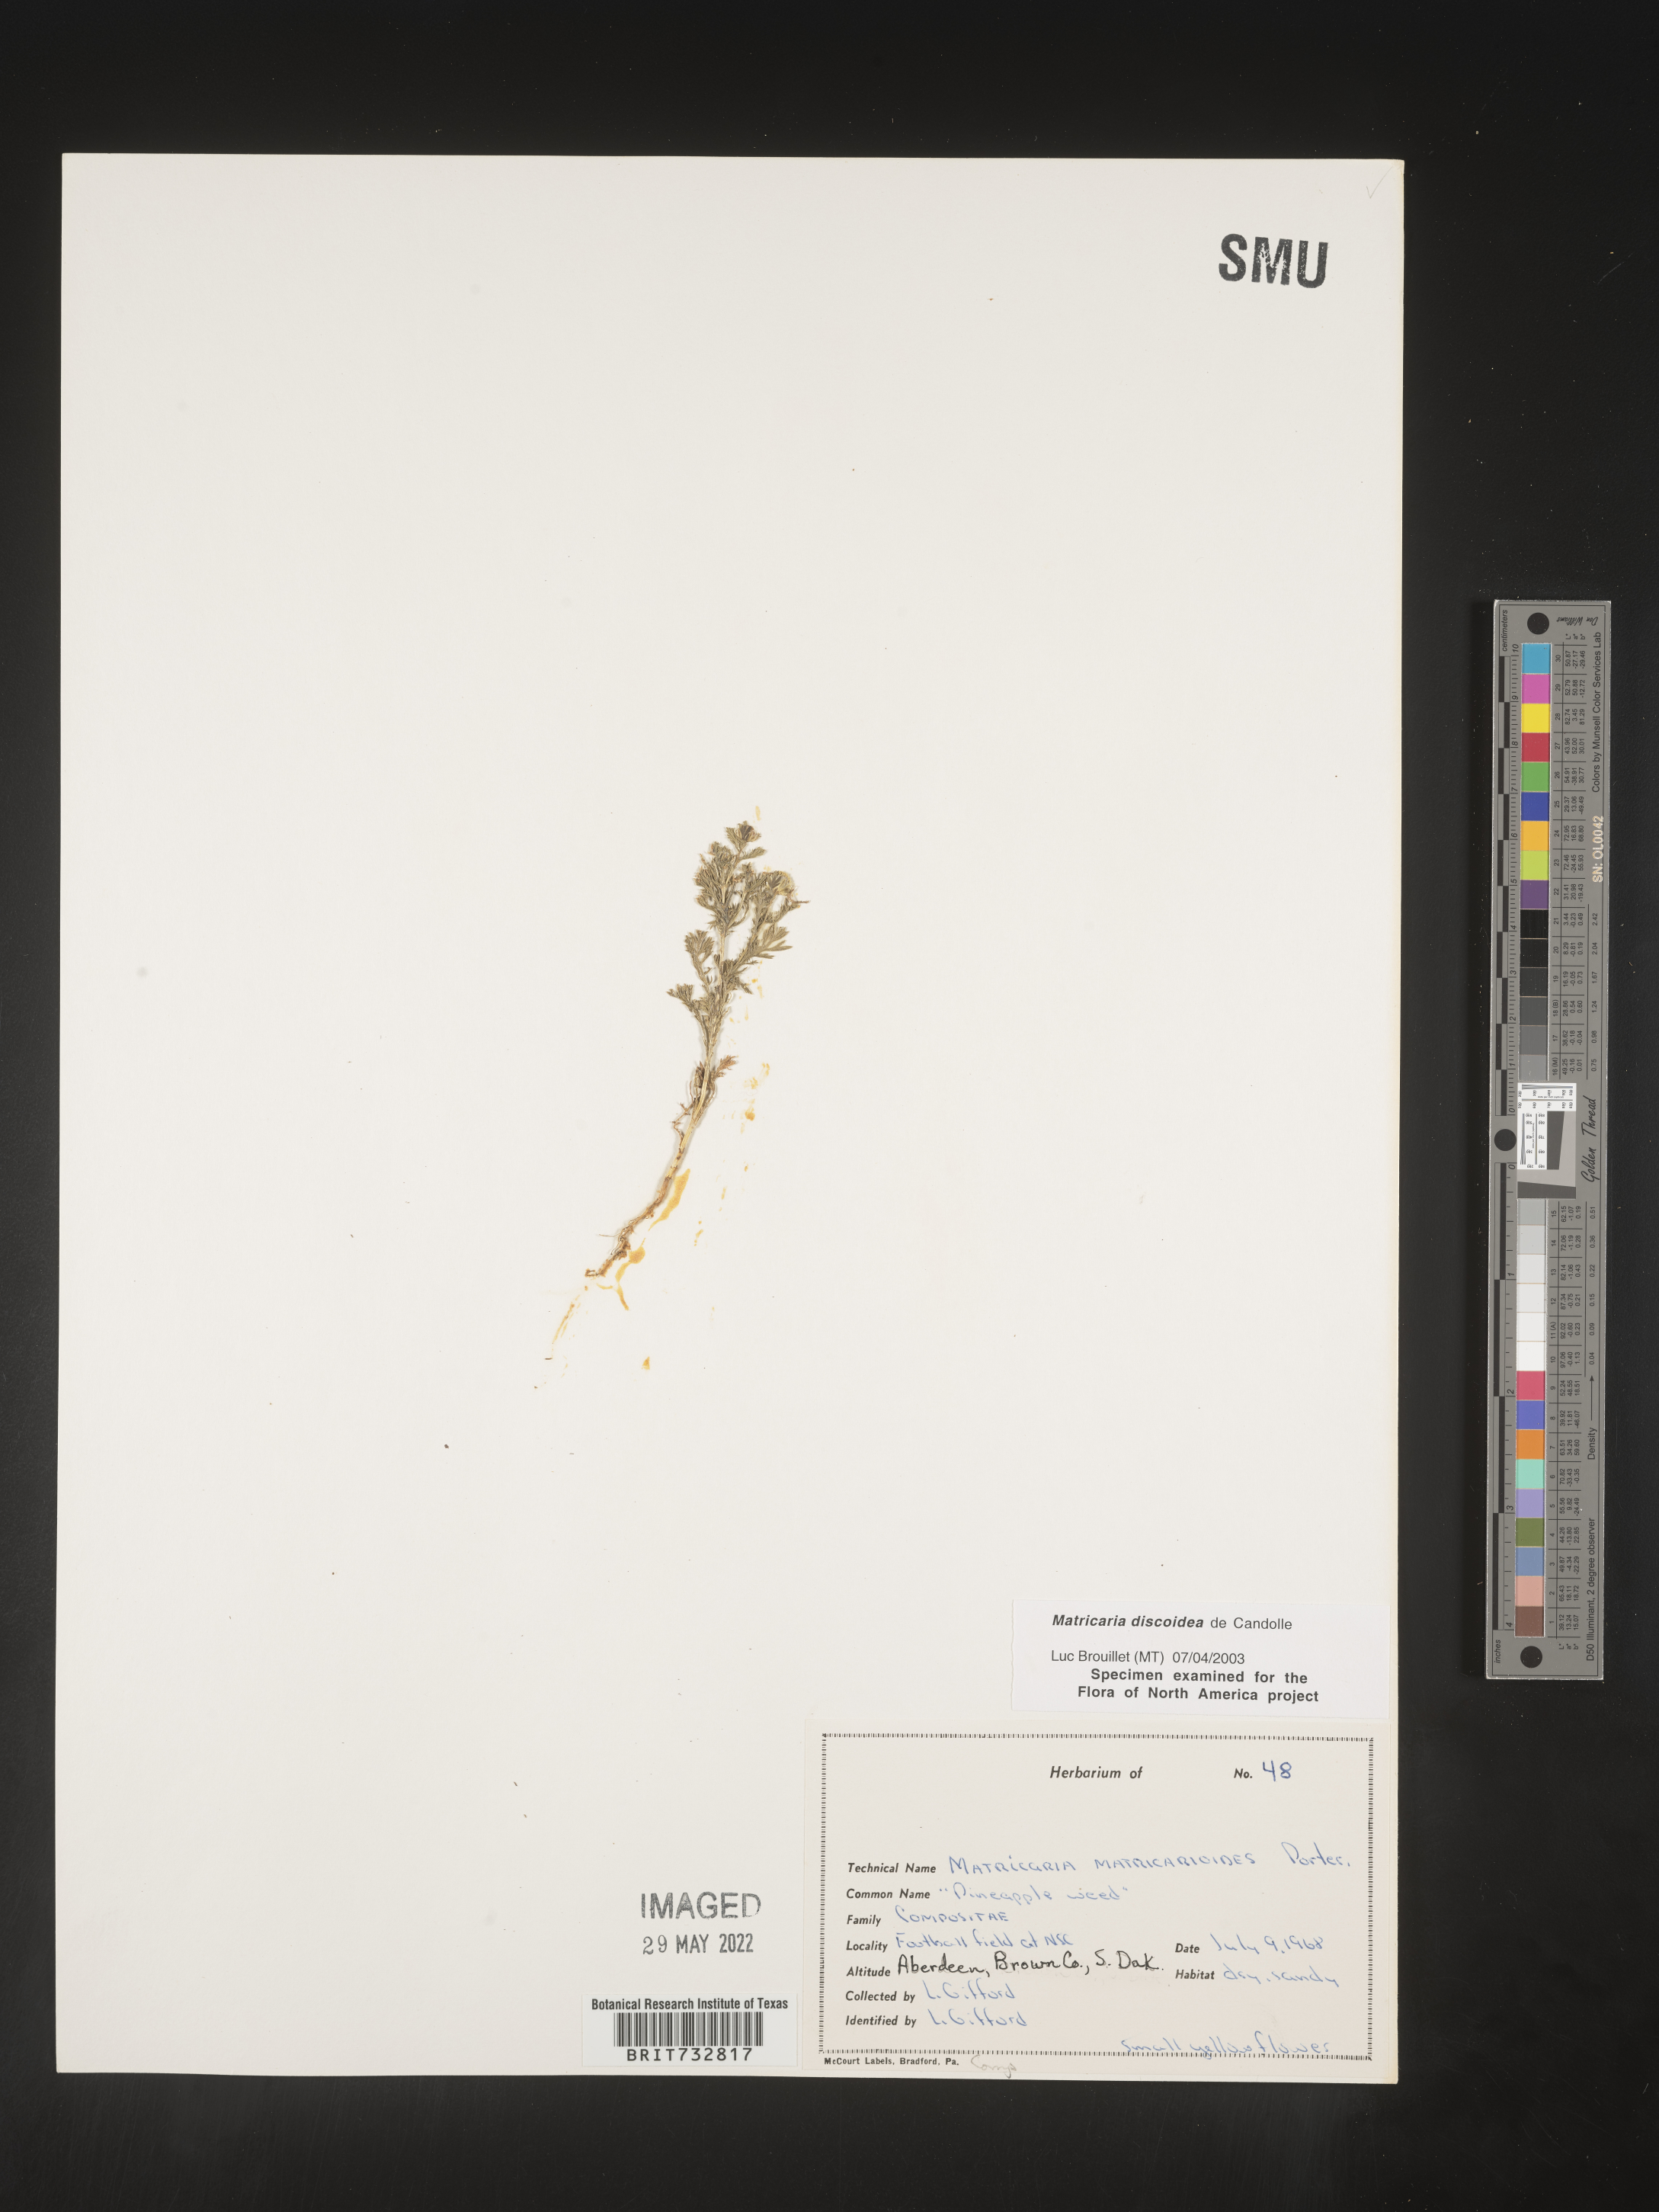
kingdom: Plantae
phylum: Tracheophyta
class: Magnoliopsida
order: Asterales
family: Asteraceae
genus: Matricaria
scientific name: Matricaria discoidea
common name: Disc mayweed
